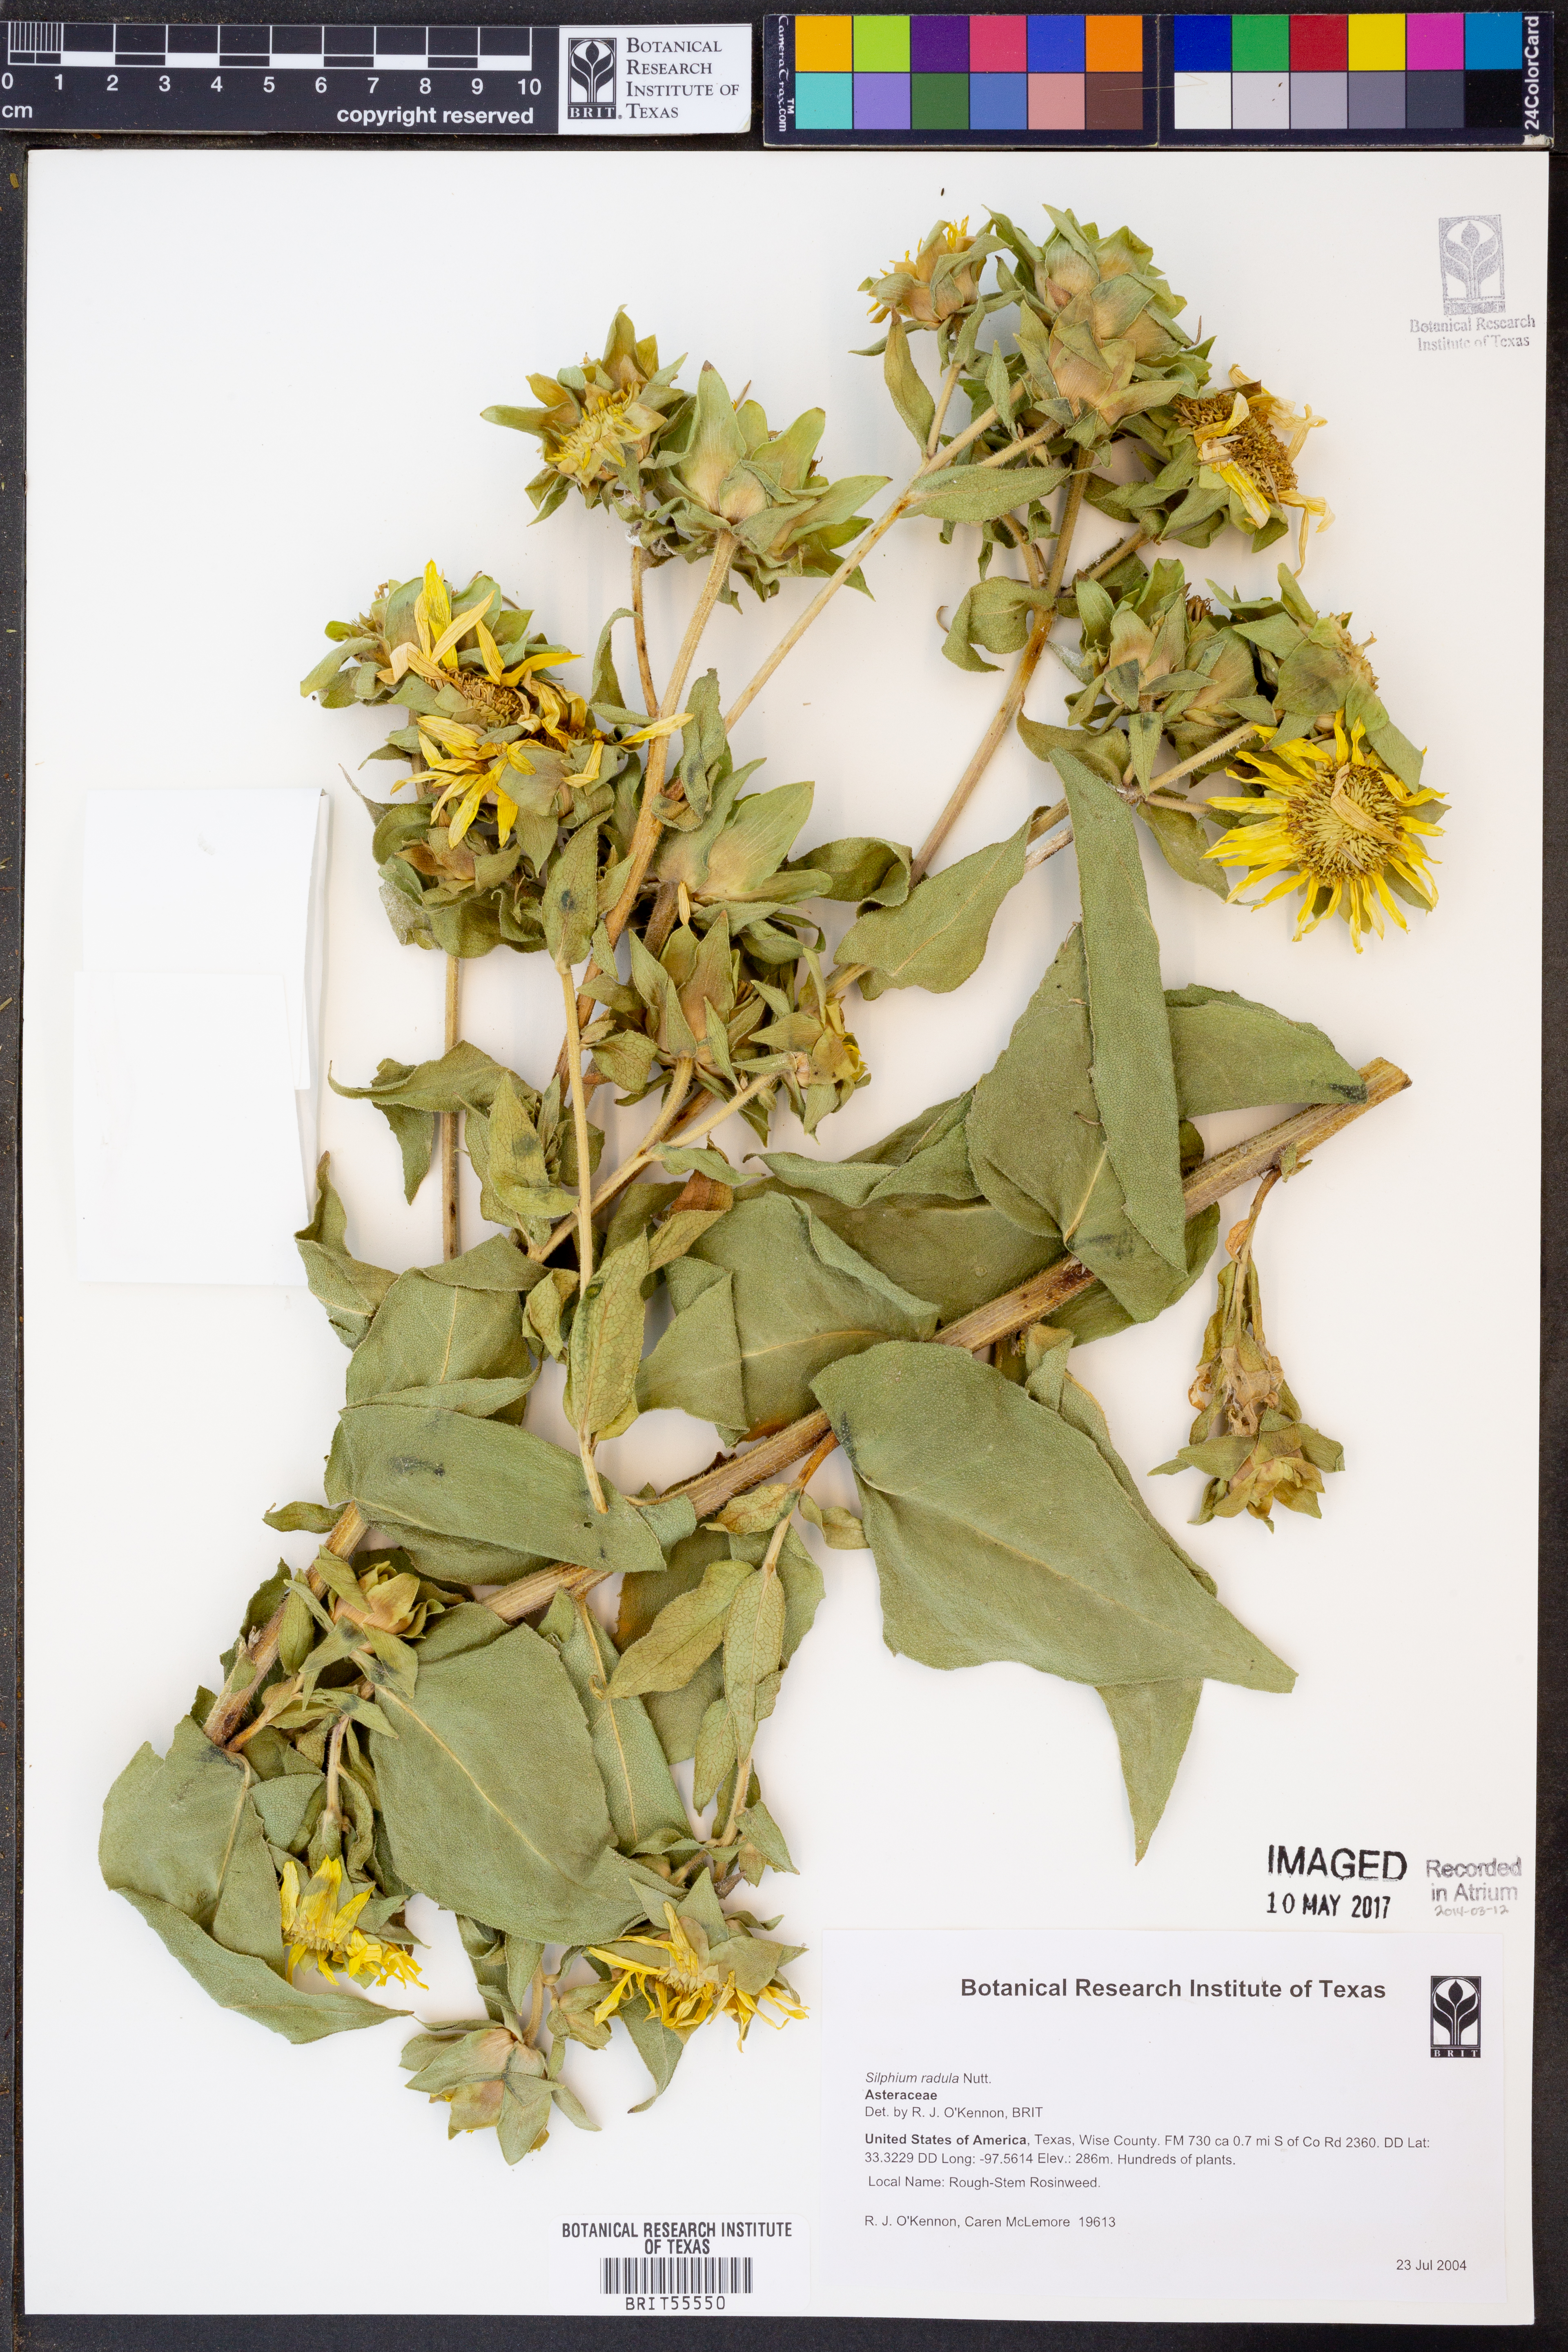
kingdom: Plantae
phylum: Tracheophyta
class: Magnoliopsida
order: Asterales
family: Asteraceae
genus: Silphium
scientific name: Silphium radula
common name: Roughleaf rosinweed
